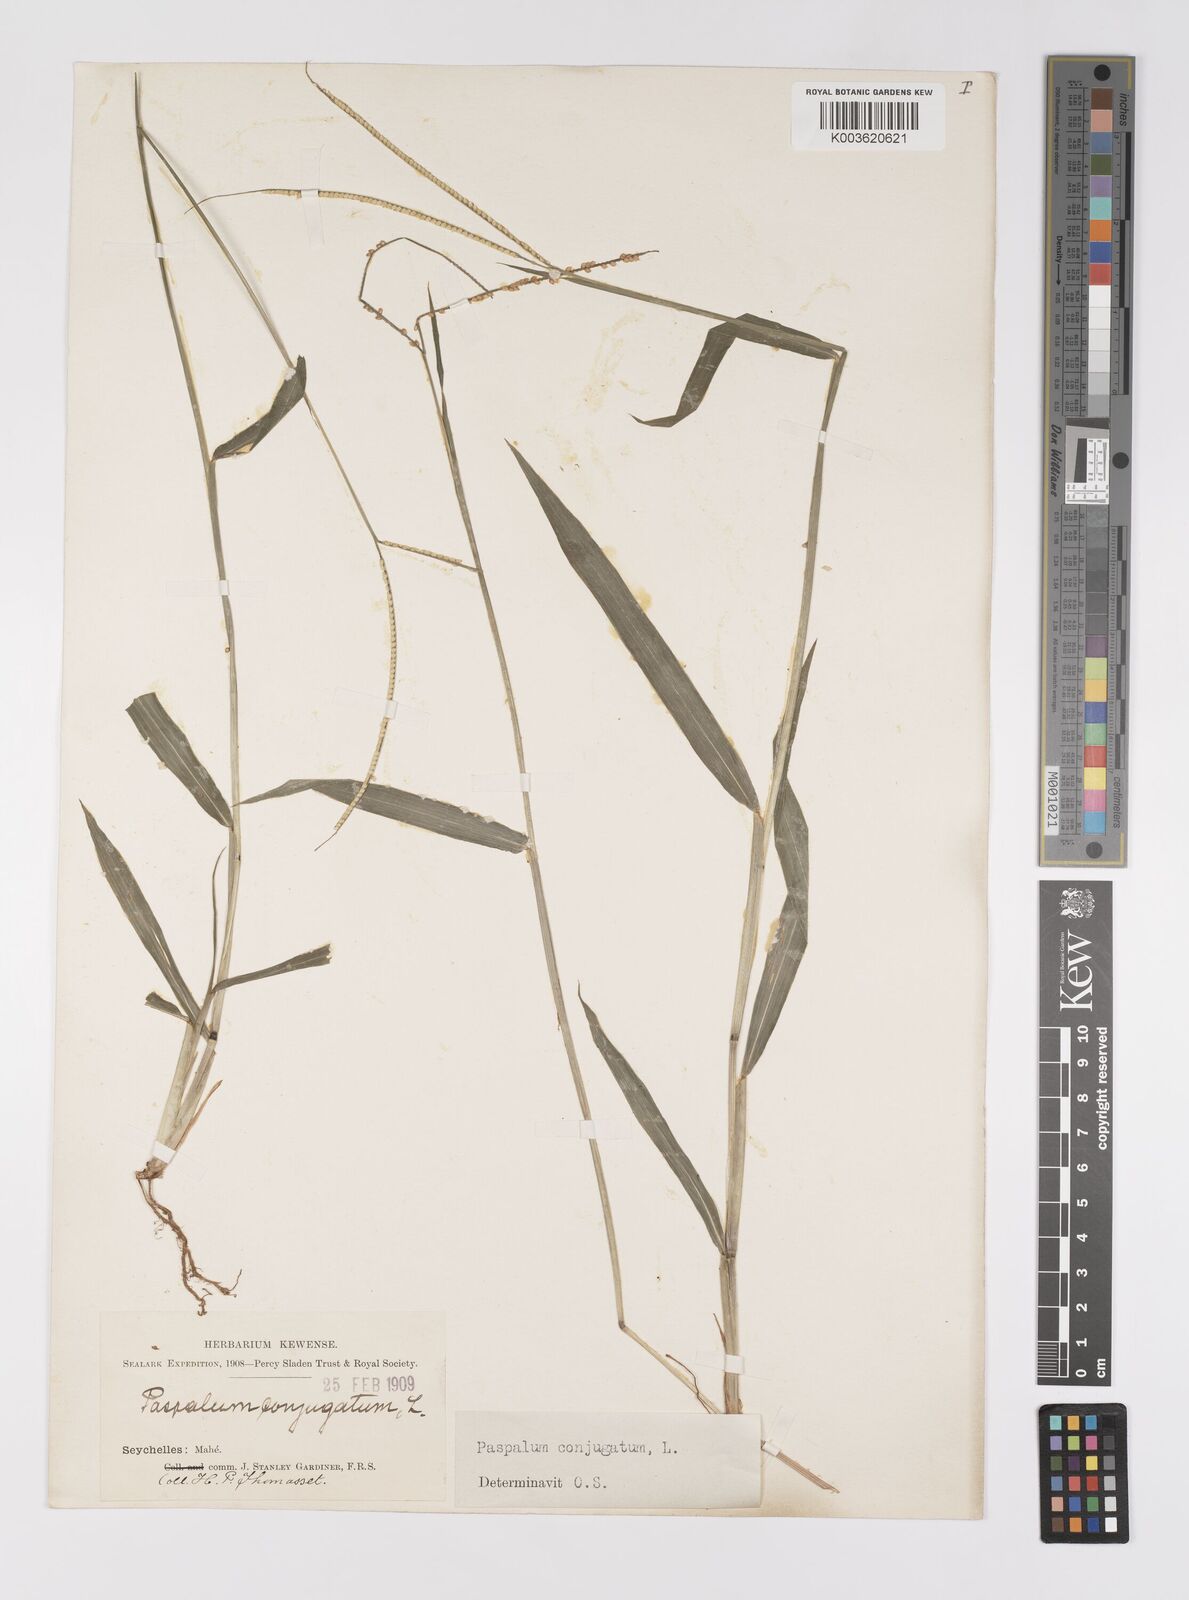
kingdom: Plantae
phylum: Tracheophyta
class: Liliopsida
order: Poales
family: Poaceae
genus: Paspalum
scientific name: Paspalum conjugatum
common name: Hilograss
